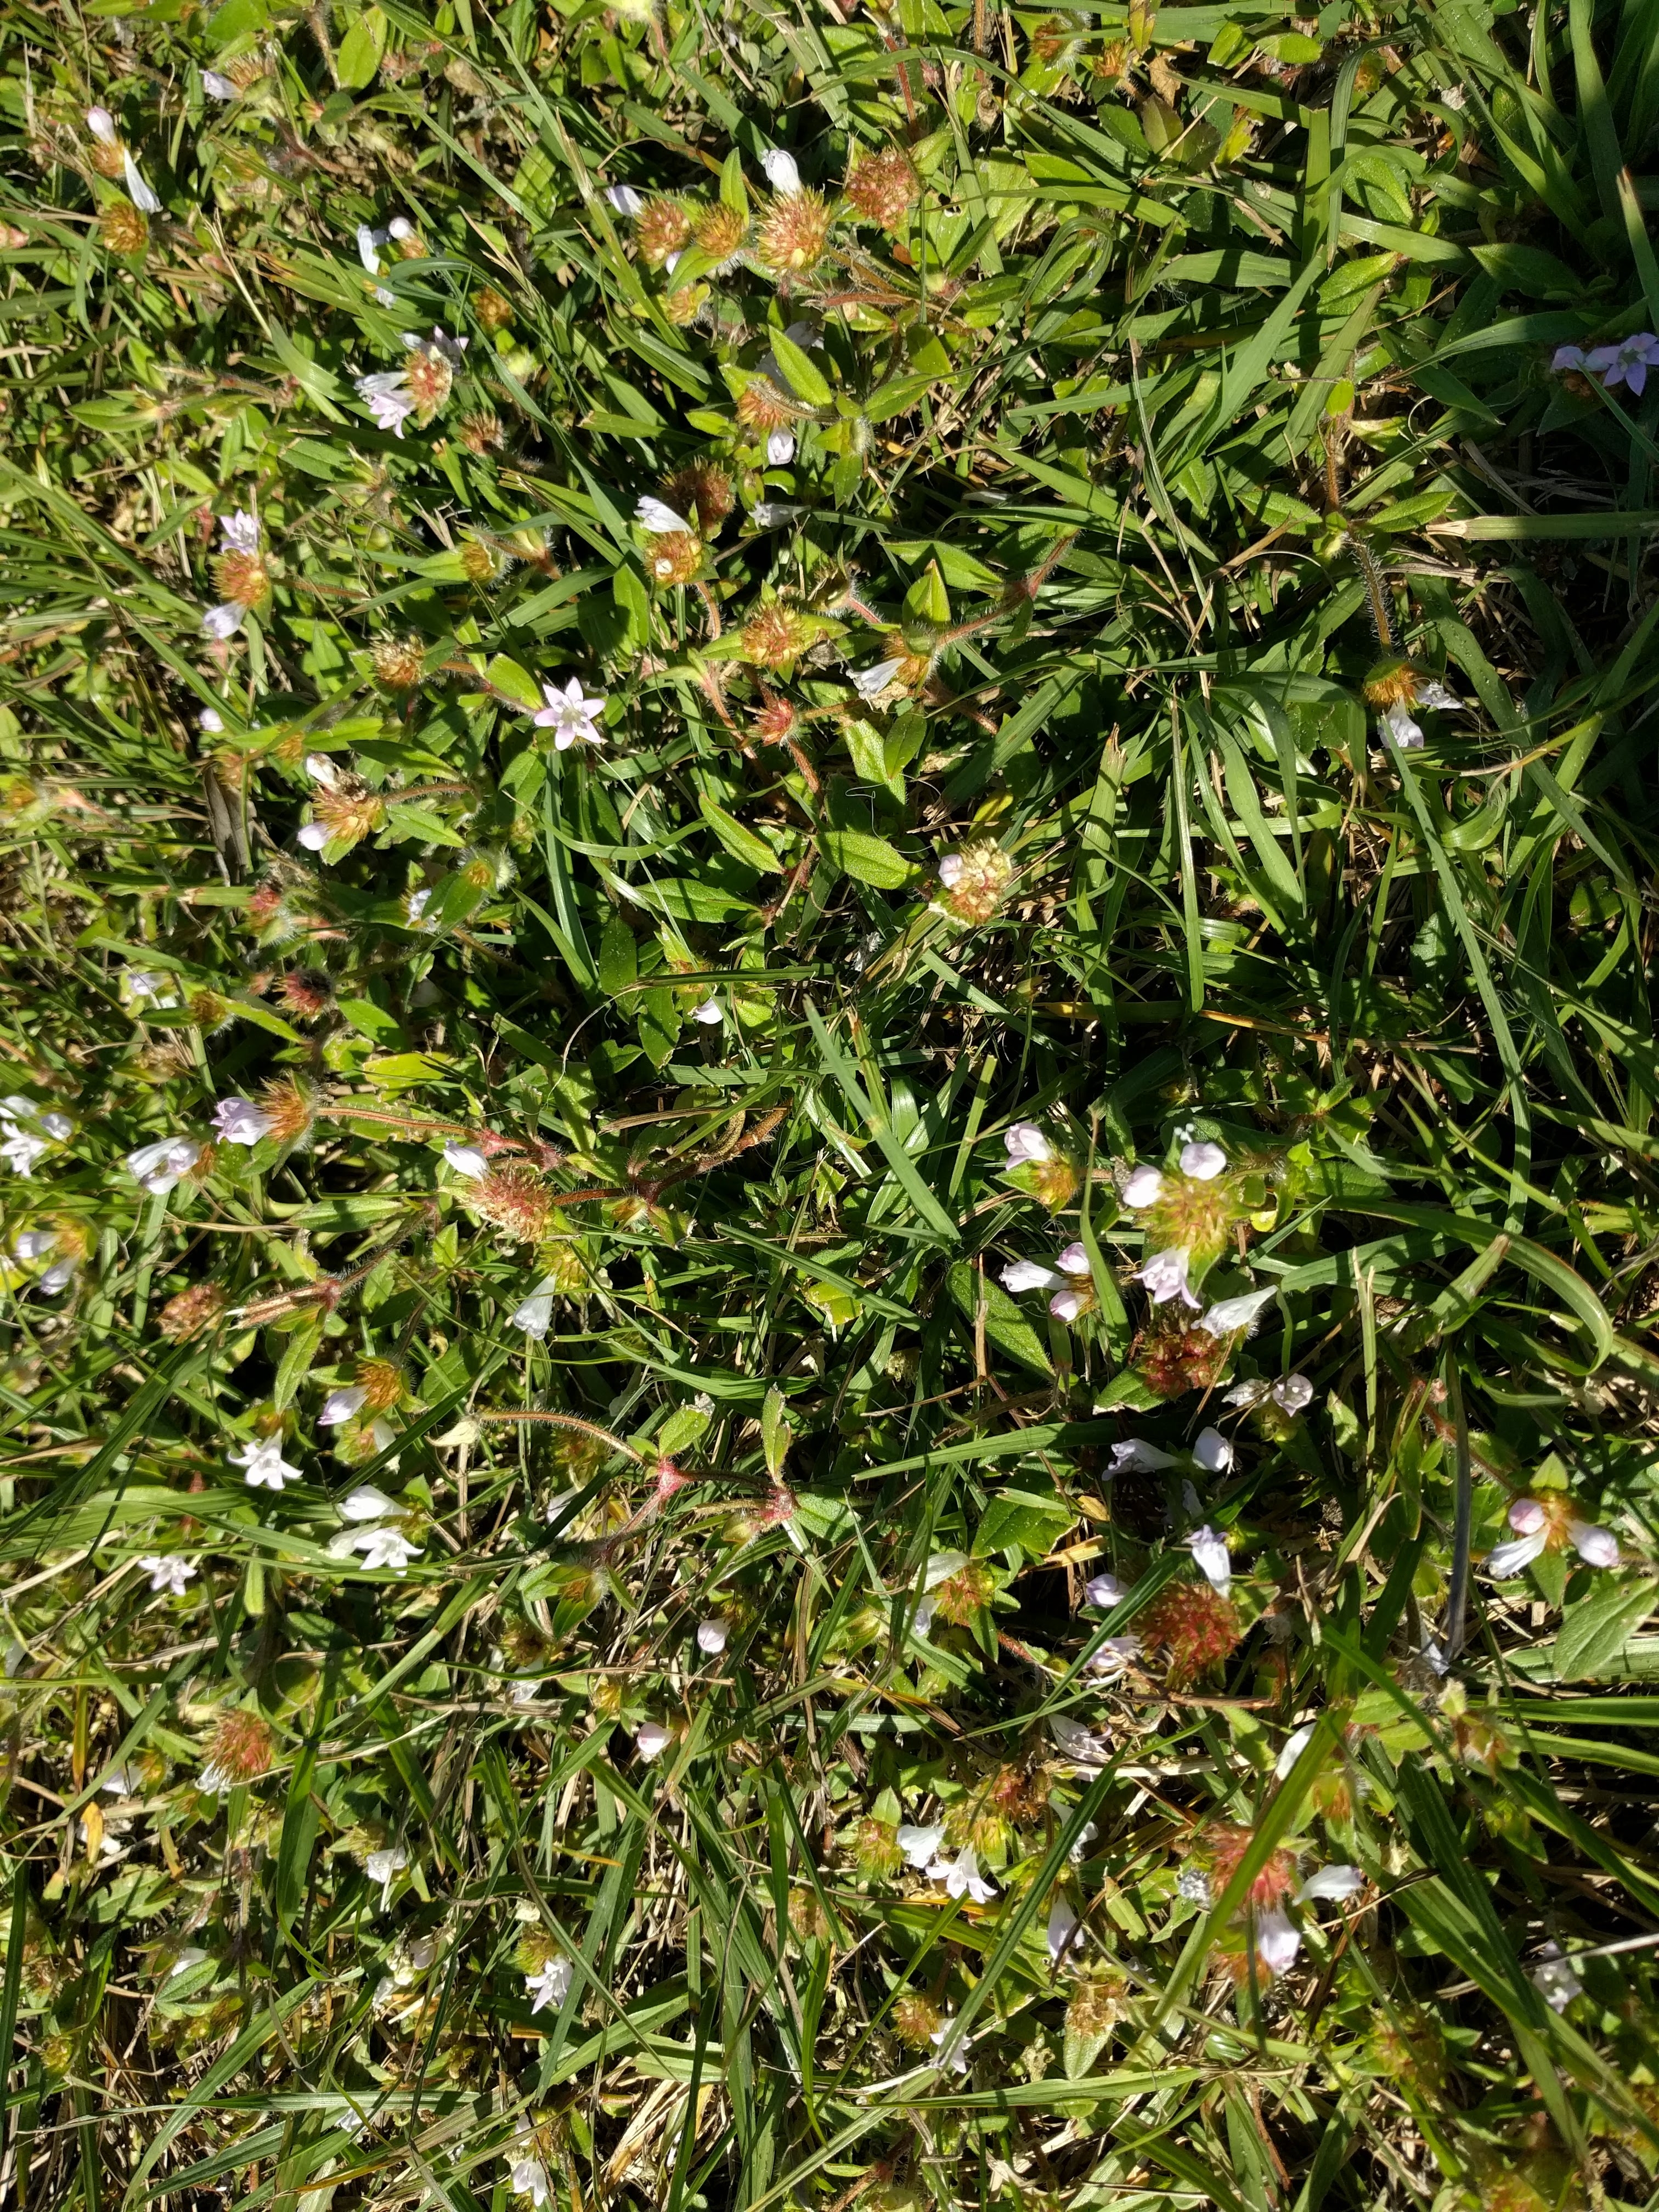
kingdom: Plantae
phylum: Tracheophyta
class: Magnoliopsida
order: Gentianales
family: Rubiaceae
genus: Richardia
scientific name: Richardia grandiflora
